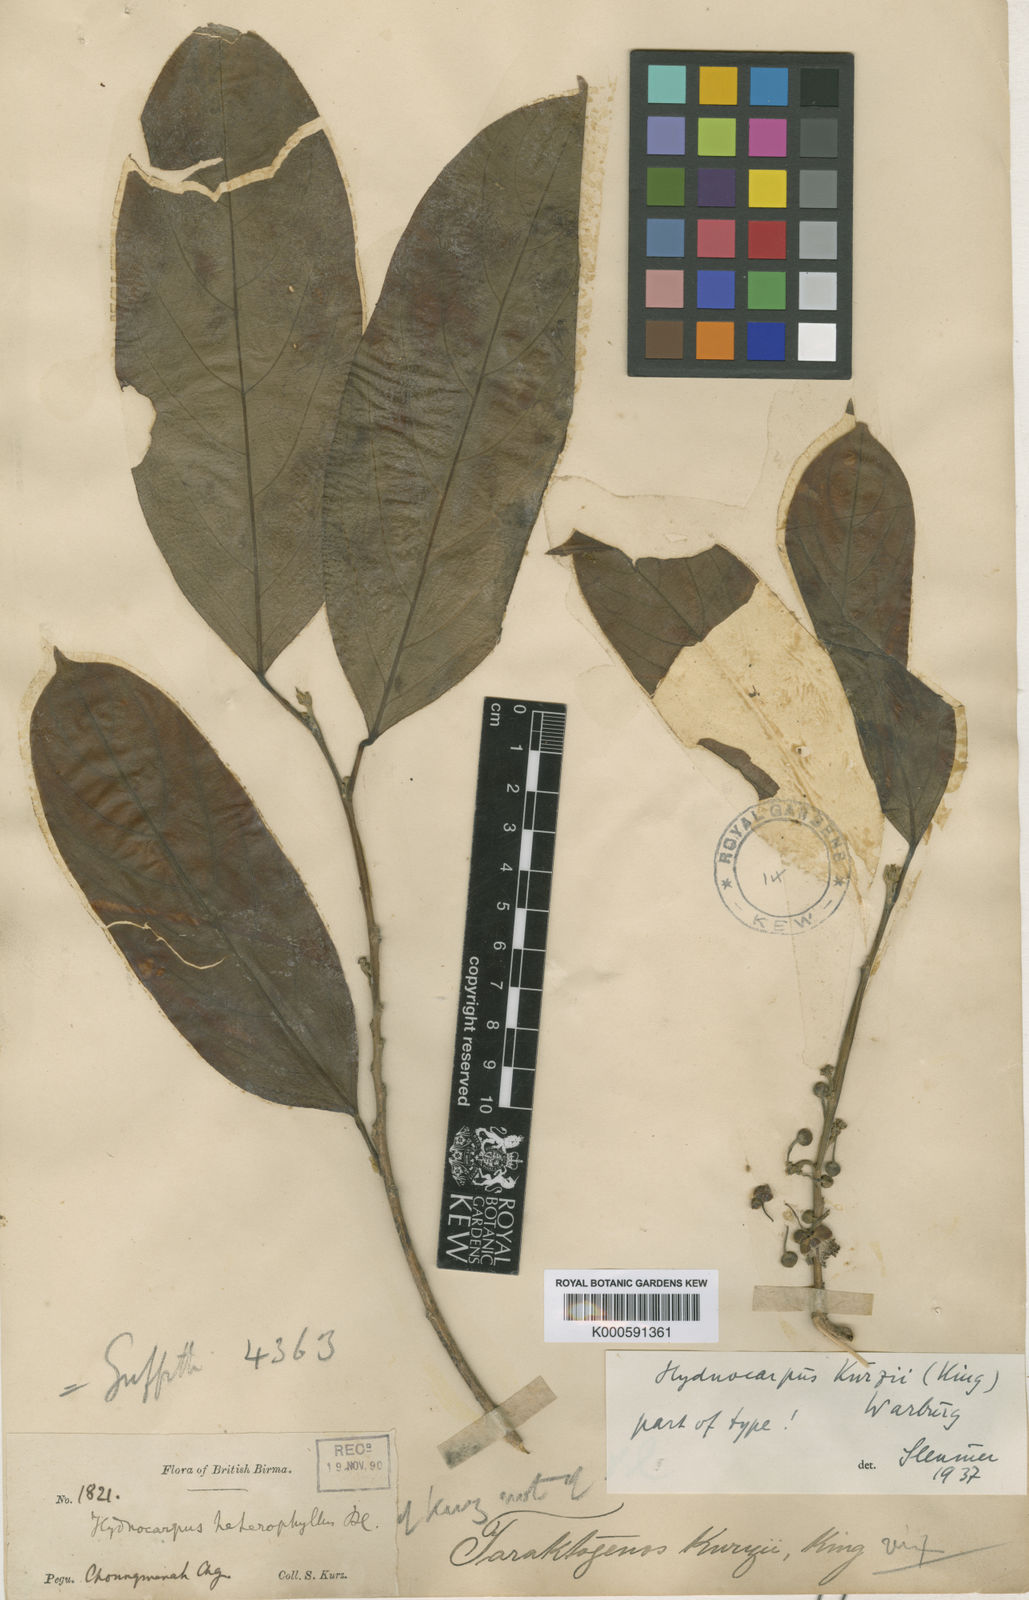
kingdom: Plantae
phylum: Tracheophyta
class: Magnoliopsida
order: Malpighiales
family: Achariaceae
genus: Hydnocarpus
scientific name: Hydnocarpus kurzii
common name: Chaulmoogra
